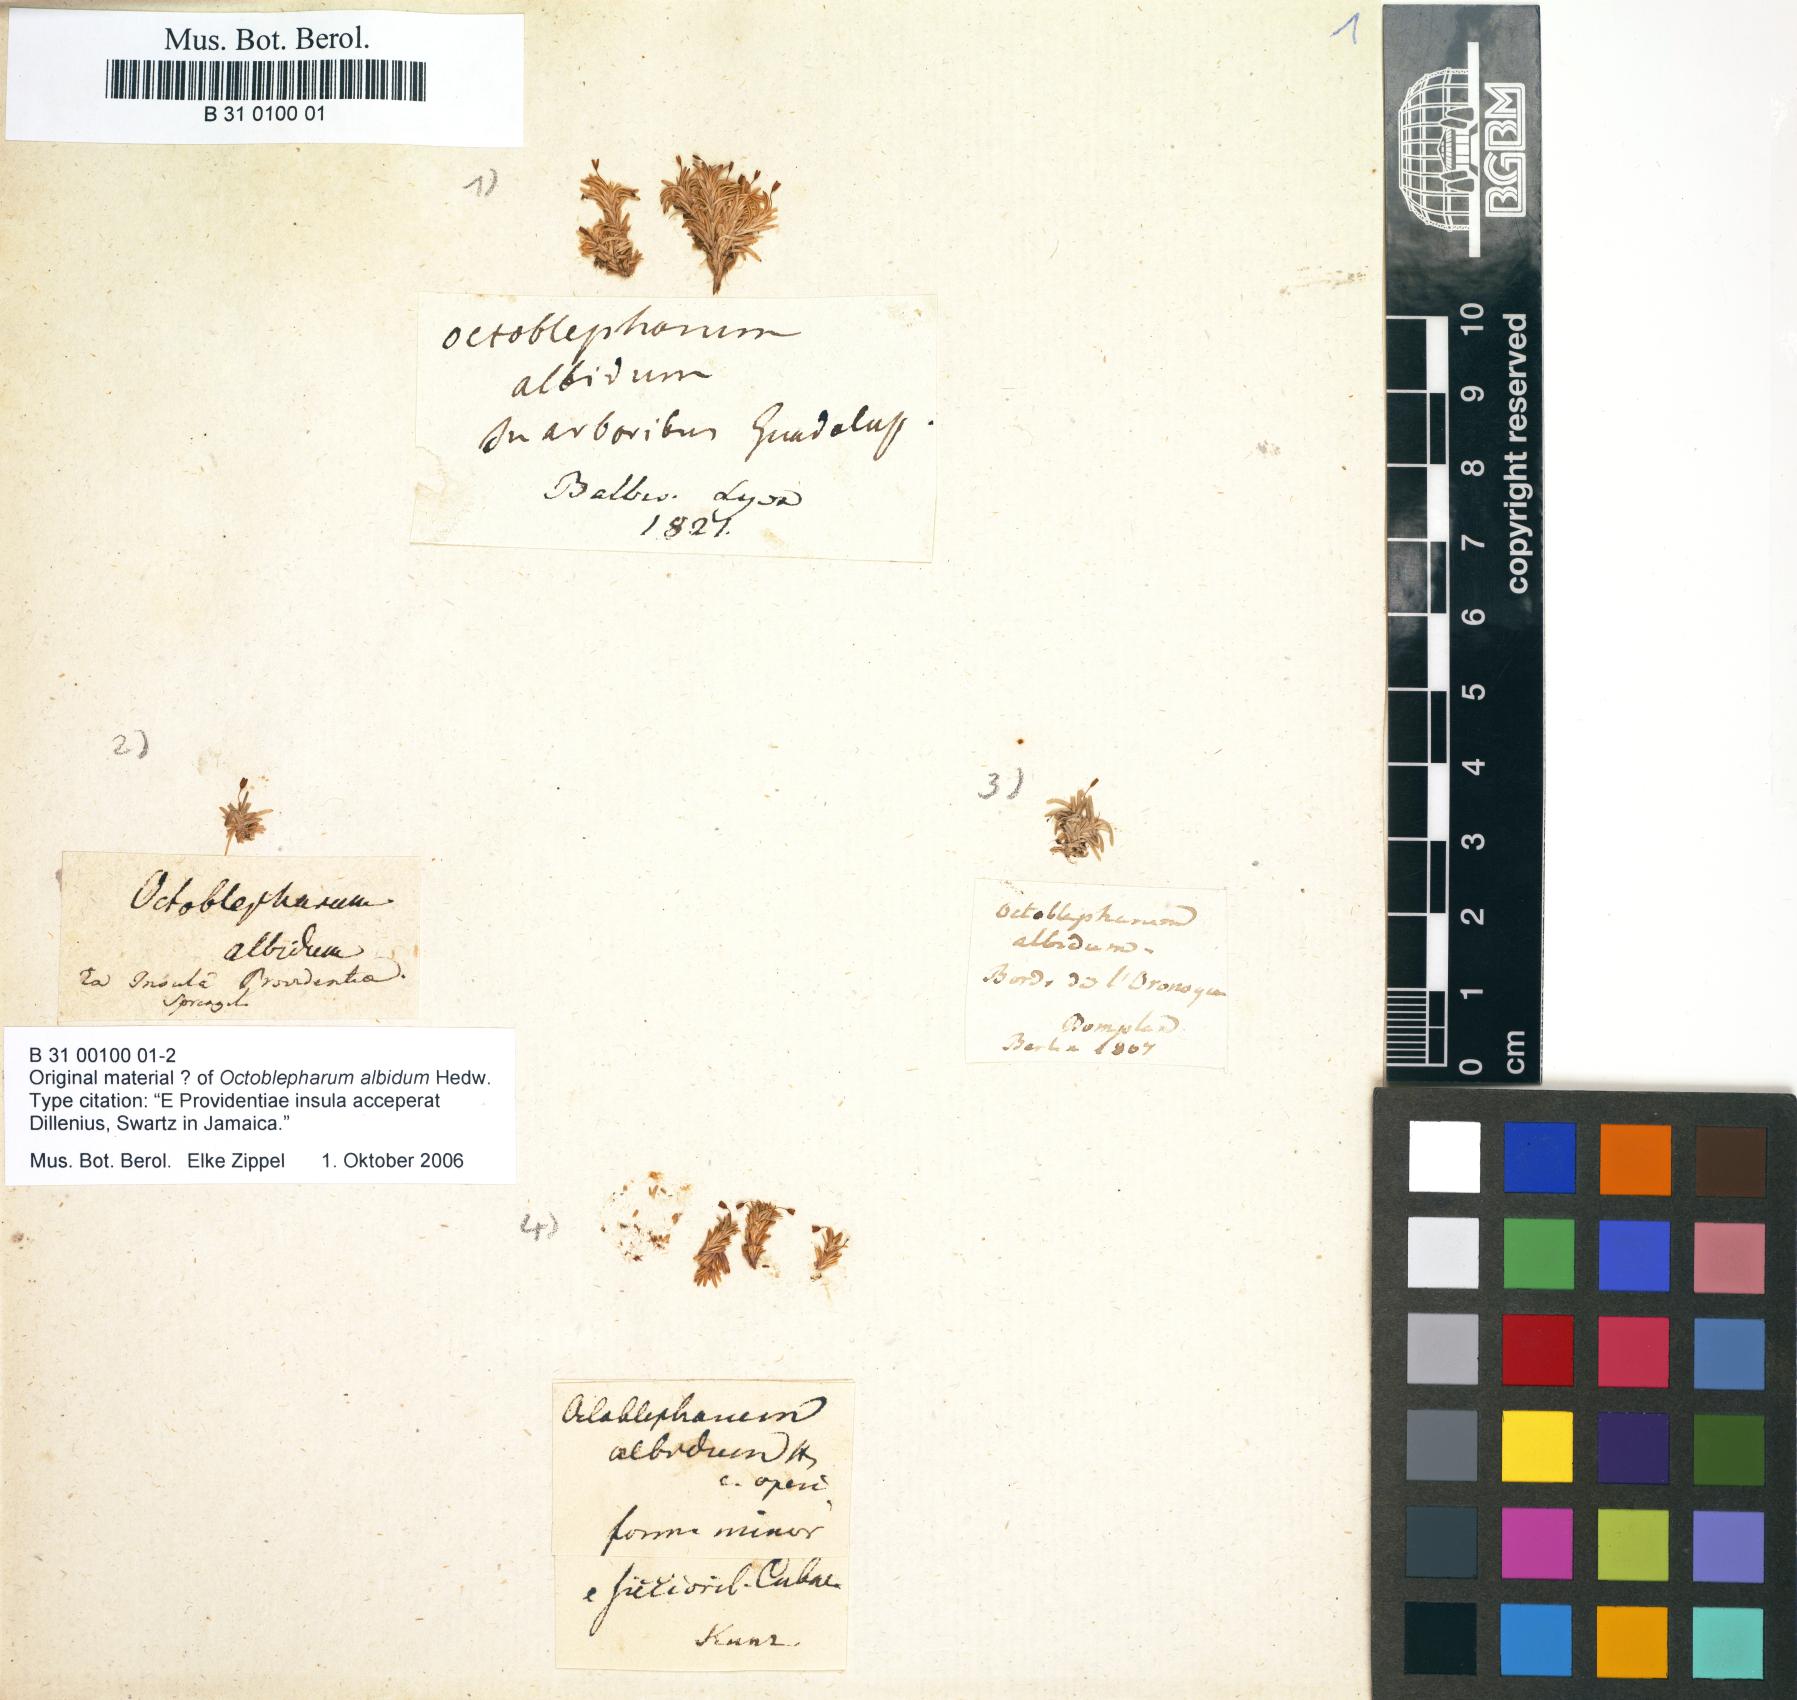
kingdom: Plantae
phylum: Bryophyta
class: Bryopsida
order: Dicranales
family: Octoblepharaceae
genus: Octoblepharum
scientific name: Octoblepharum albidum
